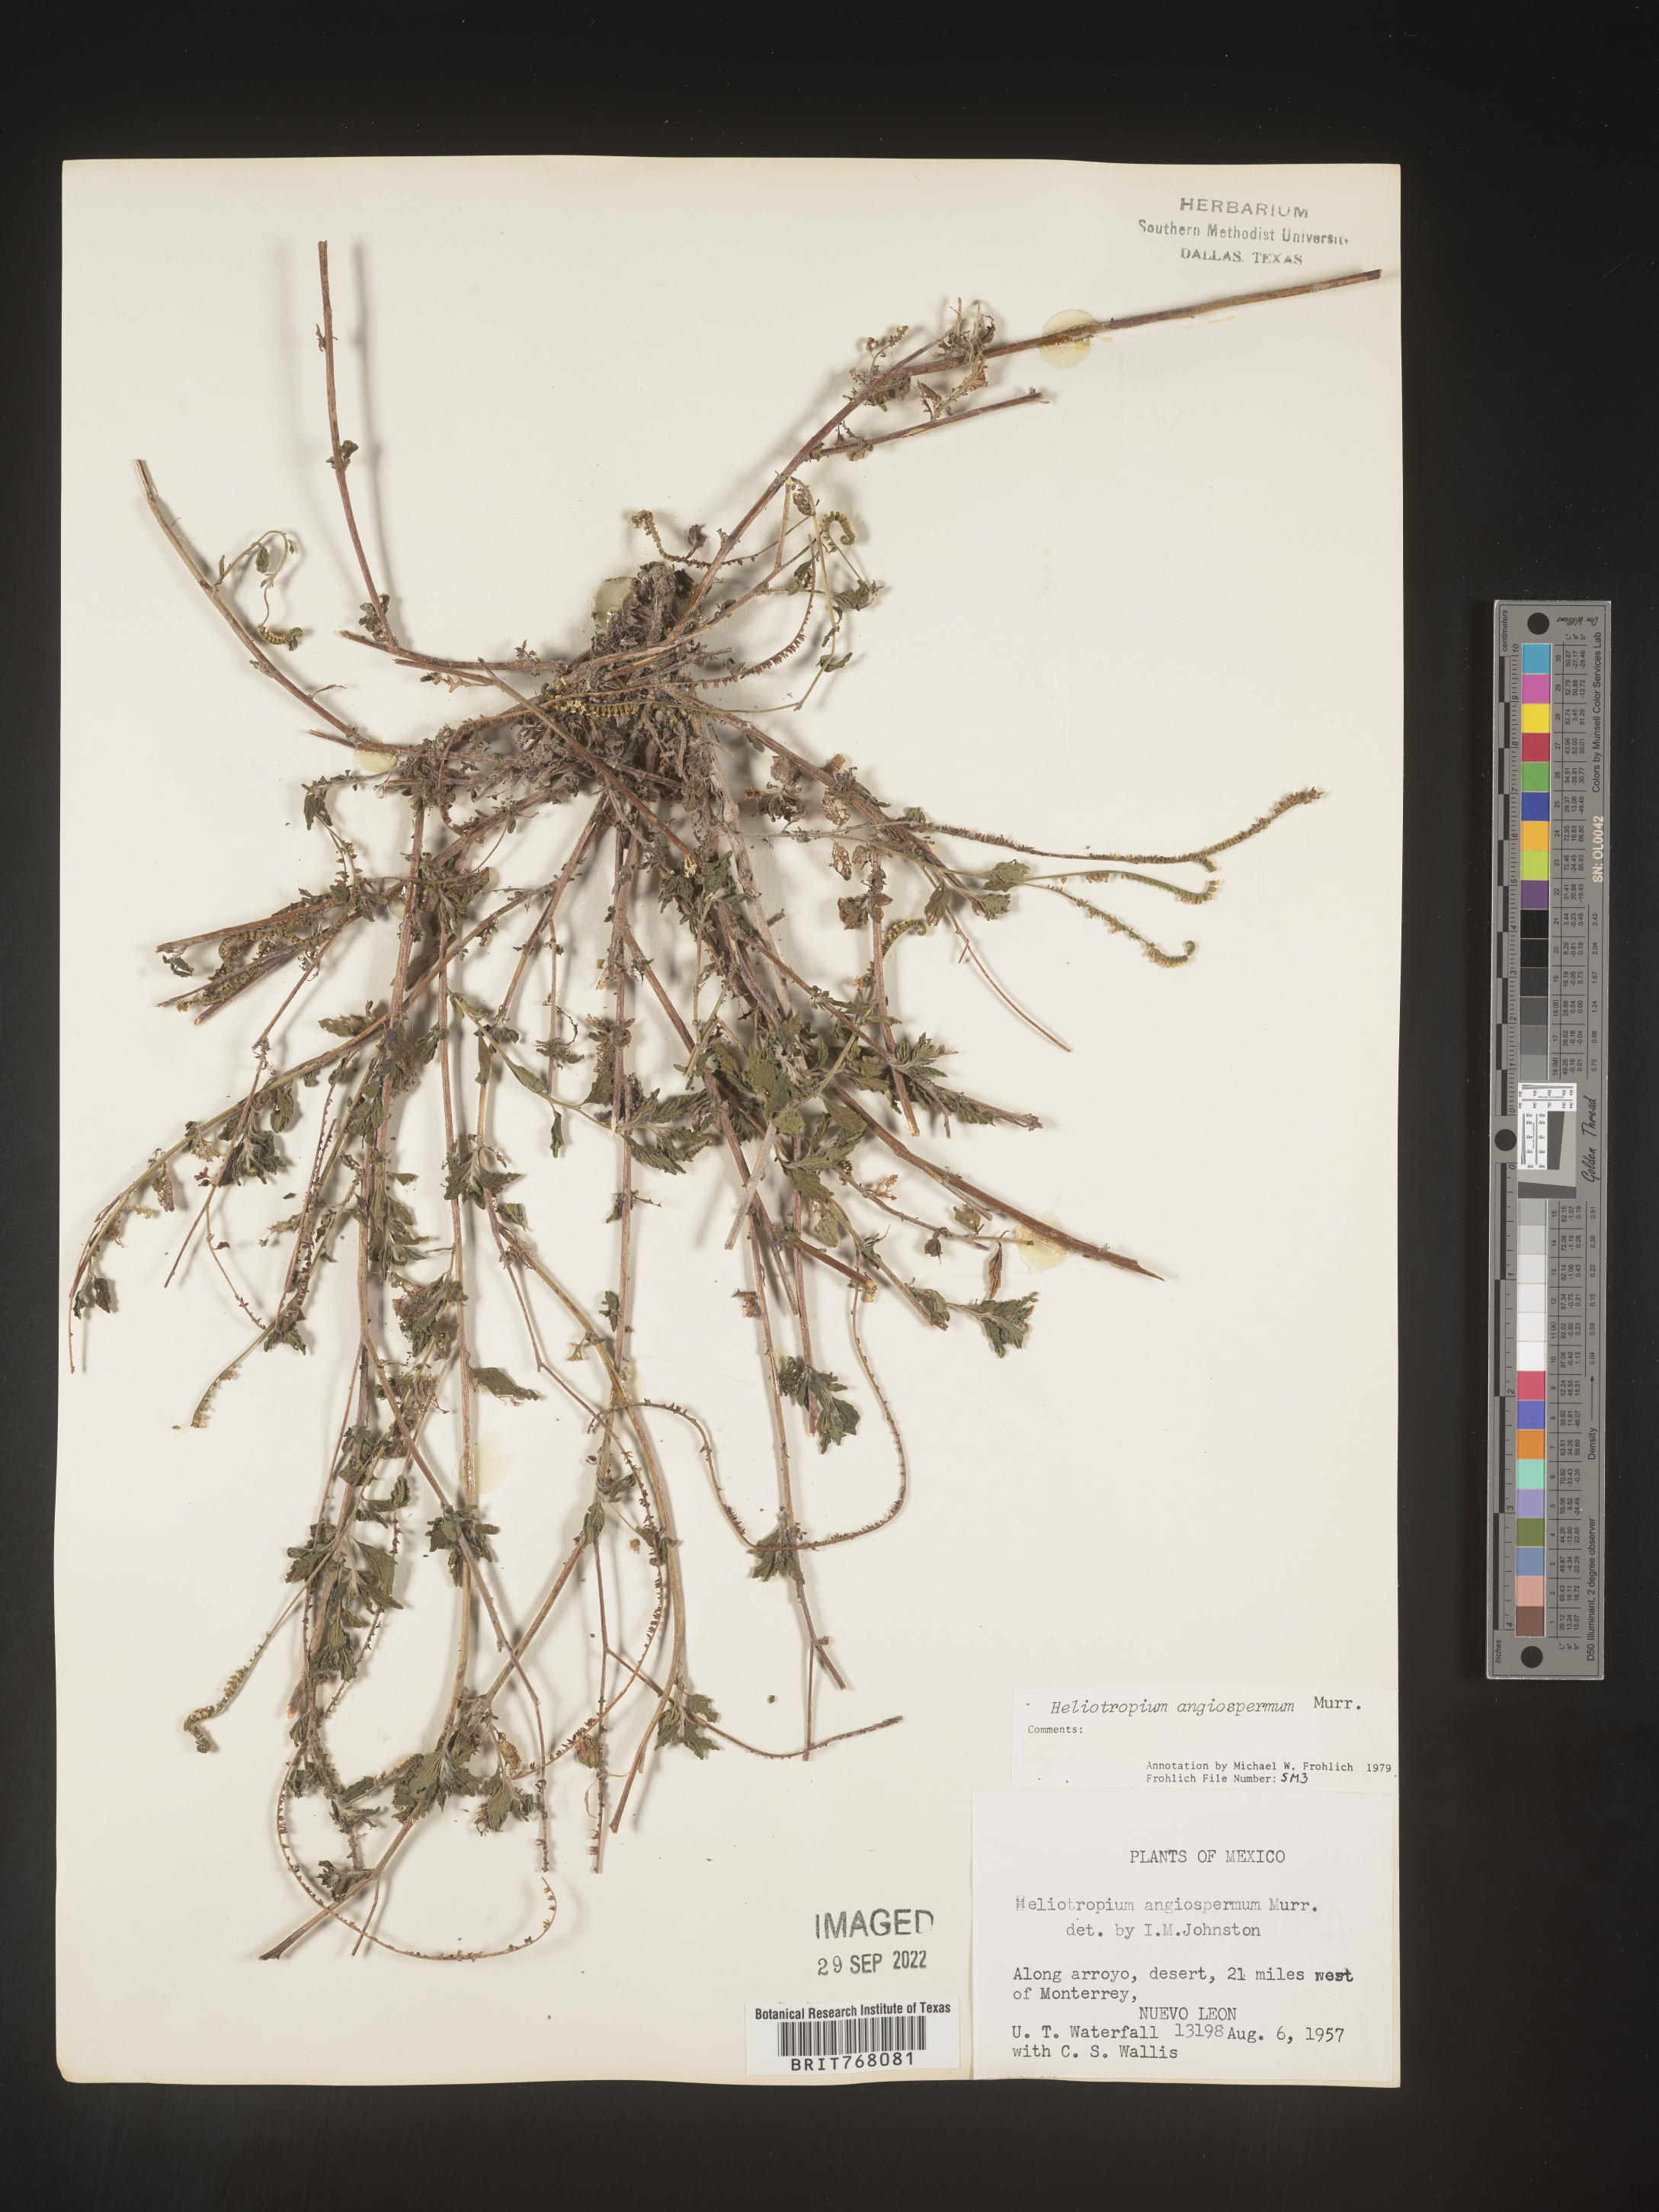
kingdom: Plantae
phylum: Tracheophyta
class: Magnoliopsida
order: Boraginales
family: Heliotropiaceae
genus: Heliotropium
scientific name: Heliotropium
